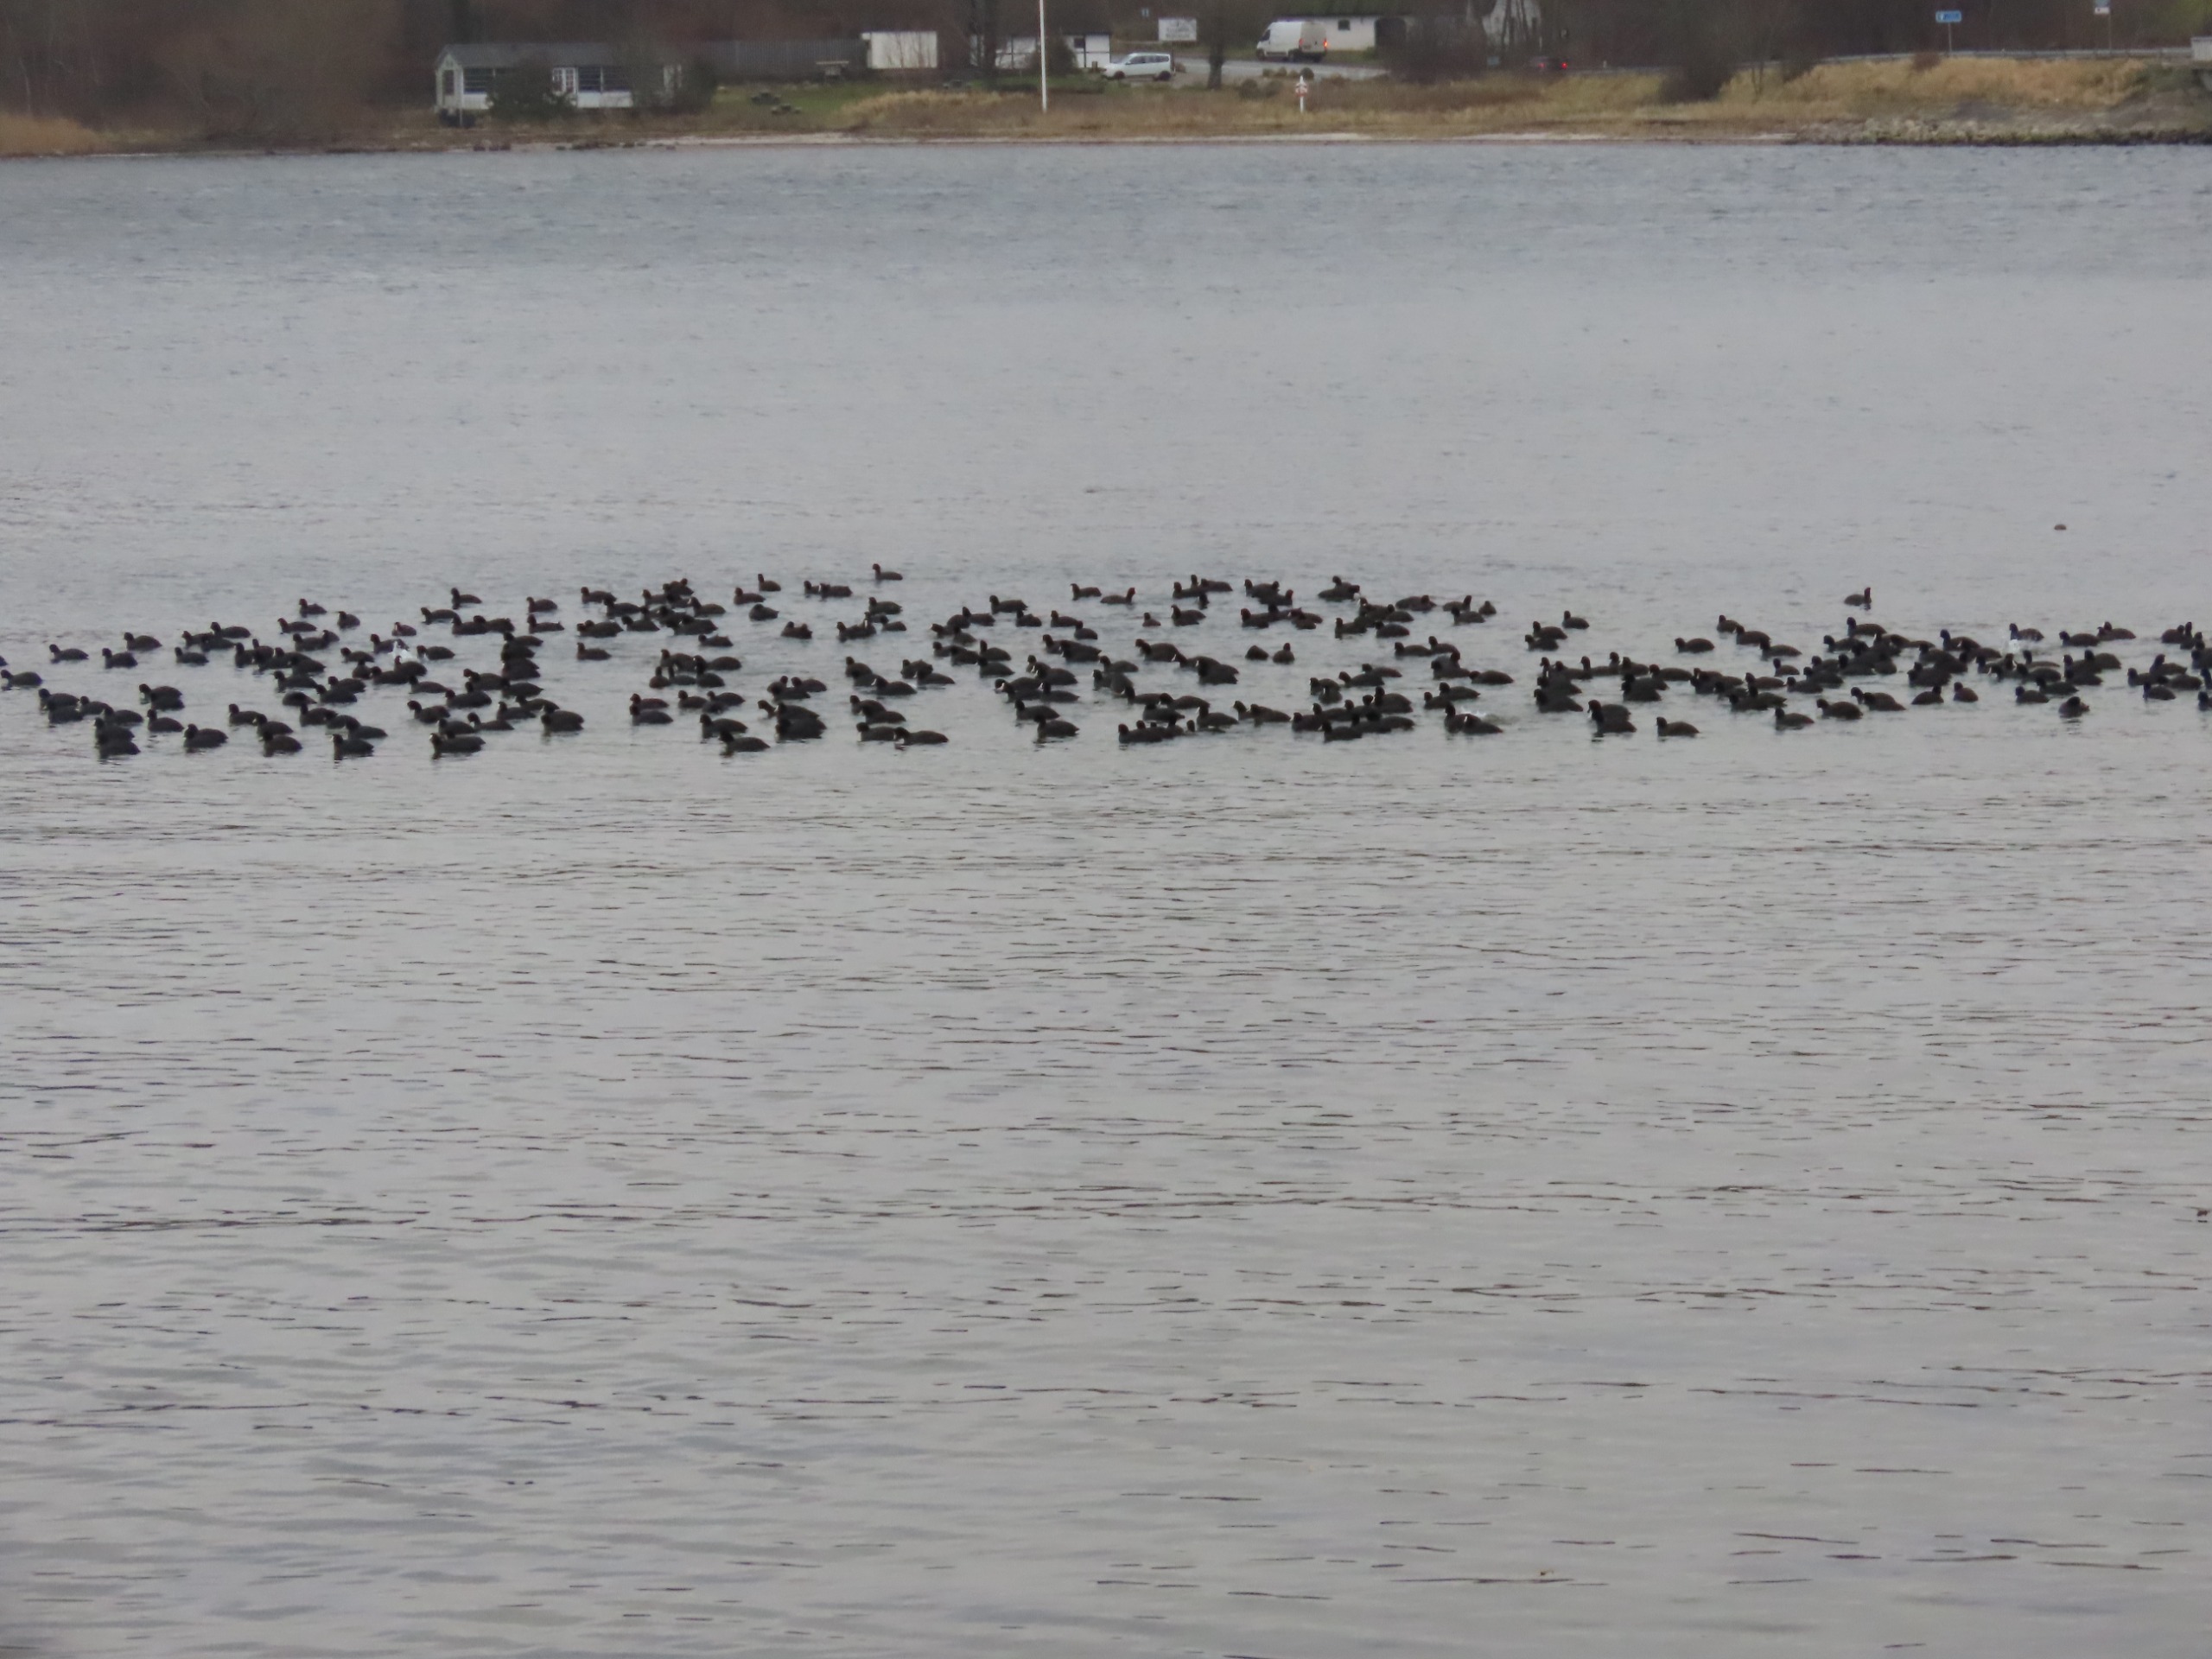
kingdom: Animalia
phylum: Chordata
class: Aves
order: Gruiformes
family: Rallidae
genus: Fulica
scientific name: Fulica atra
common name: Blishøne
